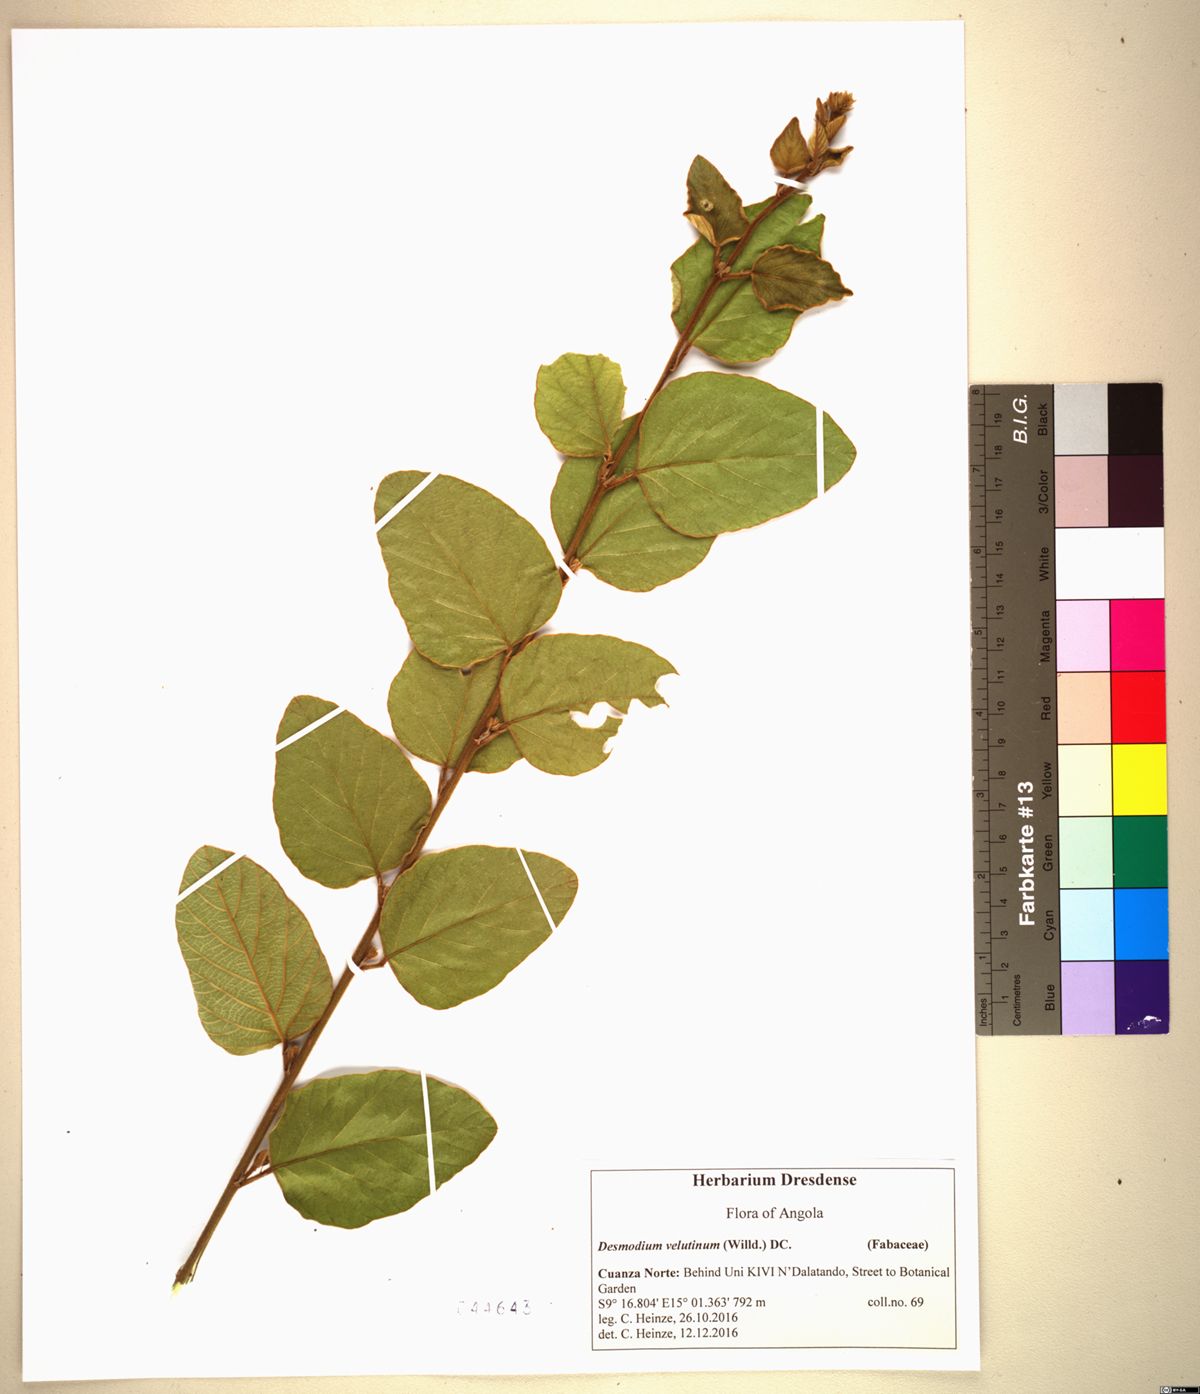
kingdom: Plantae
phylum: Tracheophyta
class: Magnoliopsida
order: Fabales
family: Fabaceae
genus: Polhillides
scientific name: Polhillides velutina
